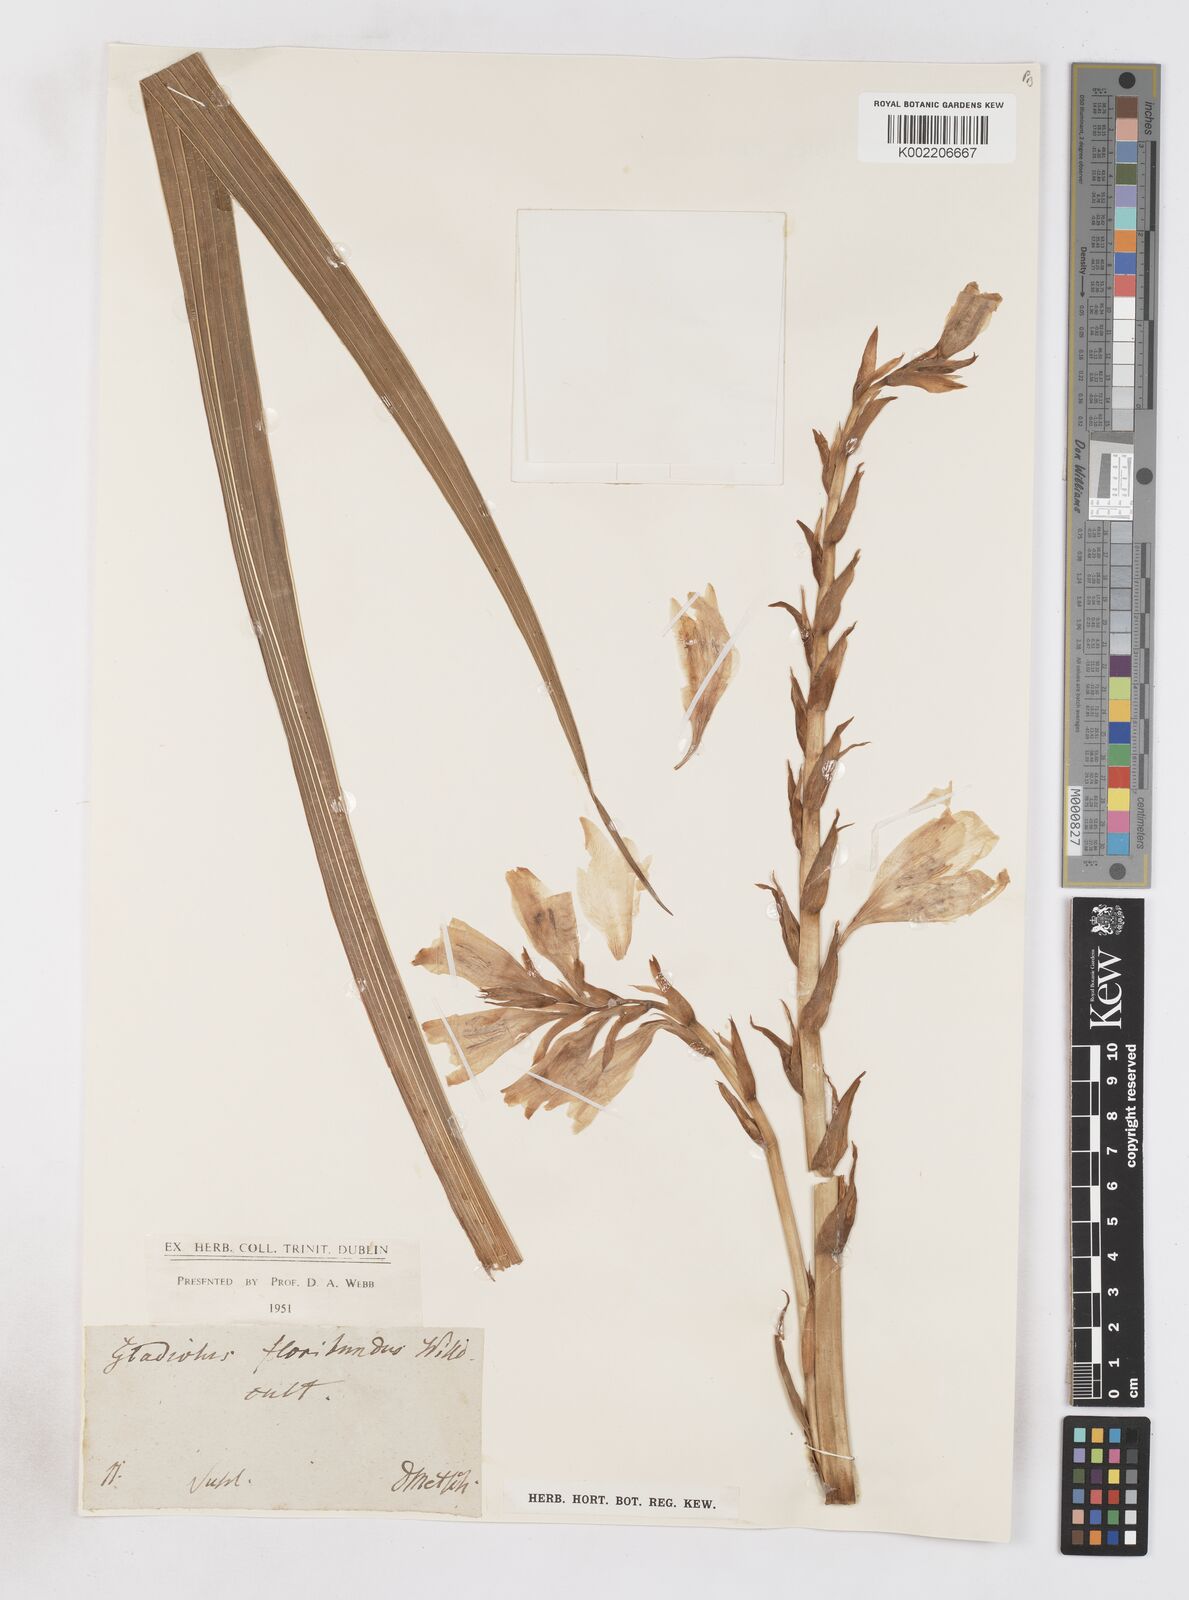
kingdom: Plantae
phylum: Tracheophyta
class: Liliopsida
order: Asparagales
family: Iridaceae
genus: Gladiolus
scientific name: Gladiolus floribundus
